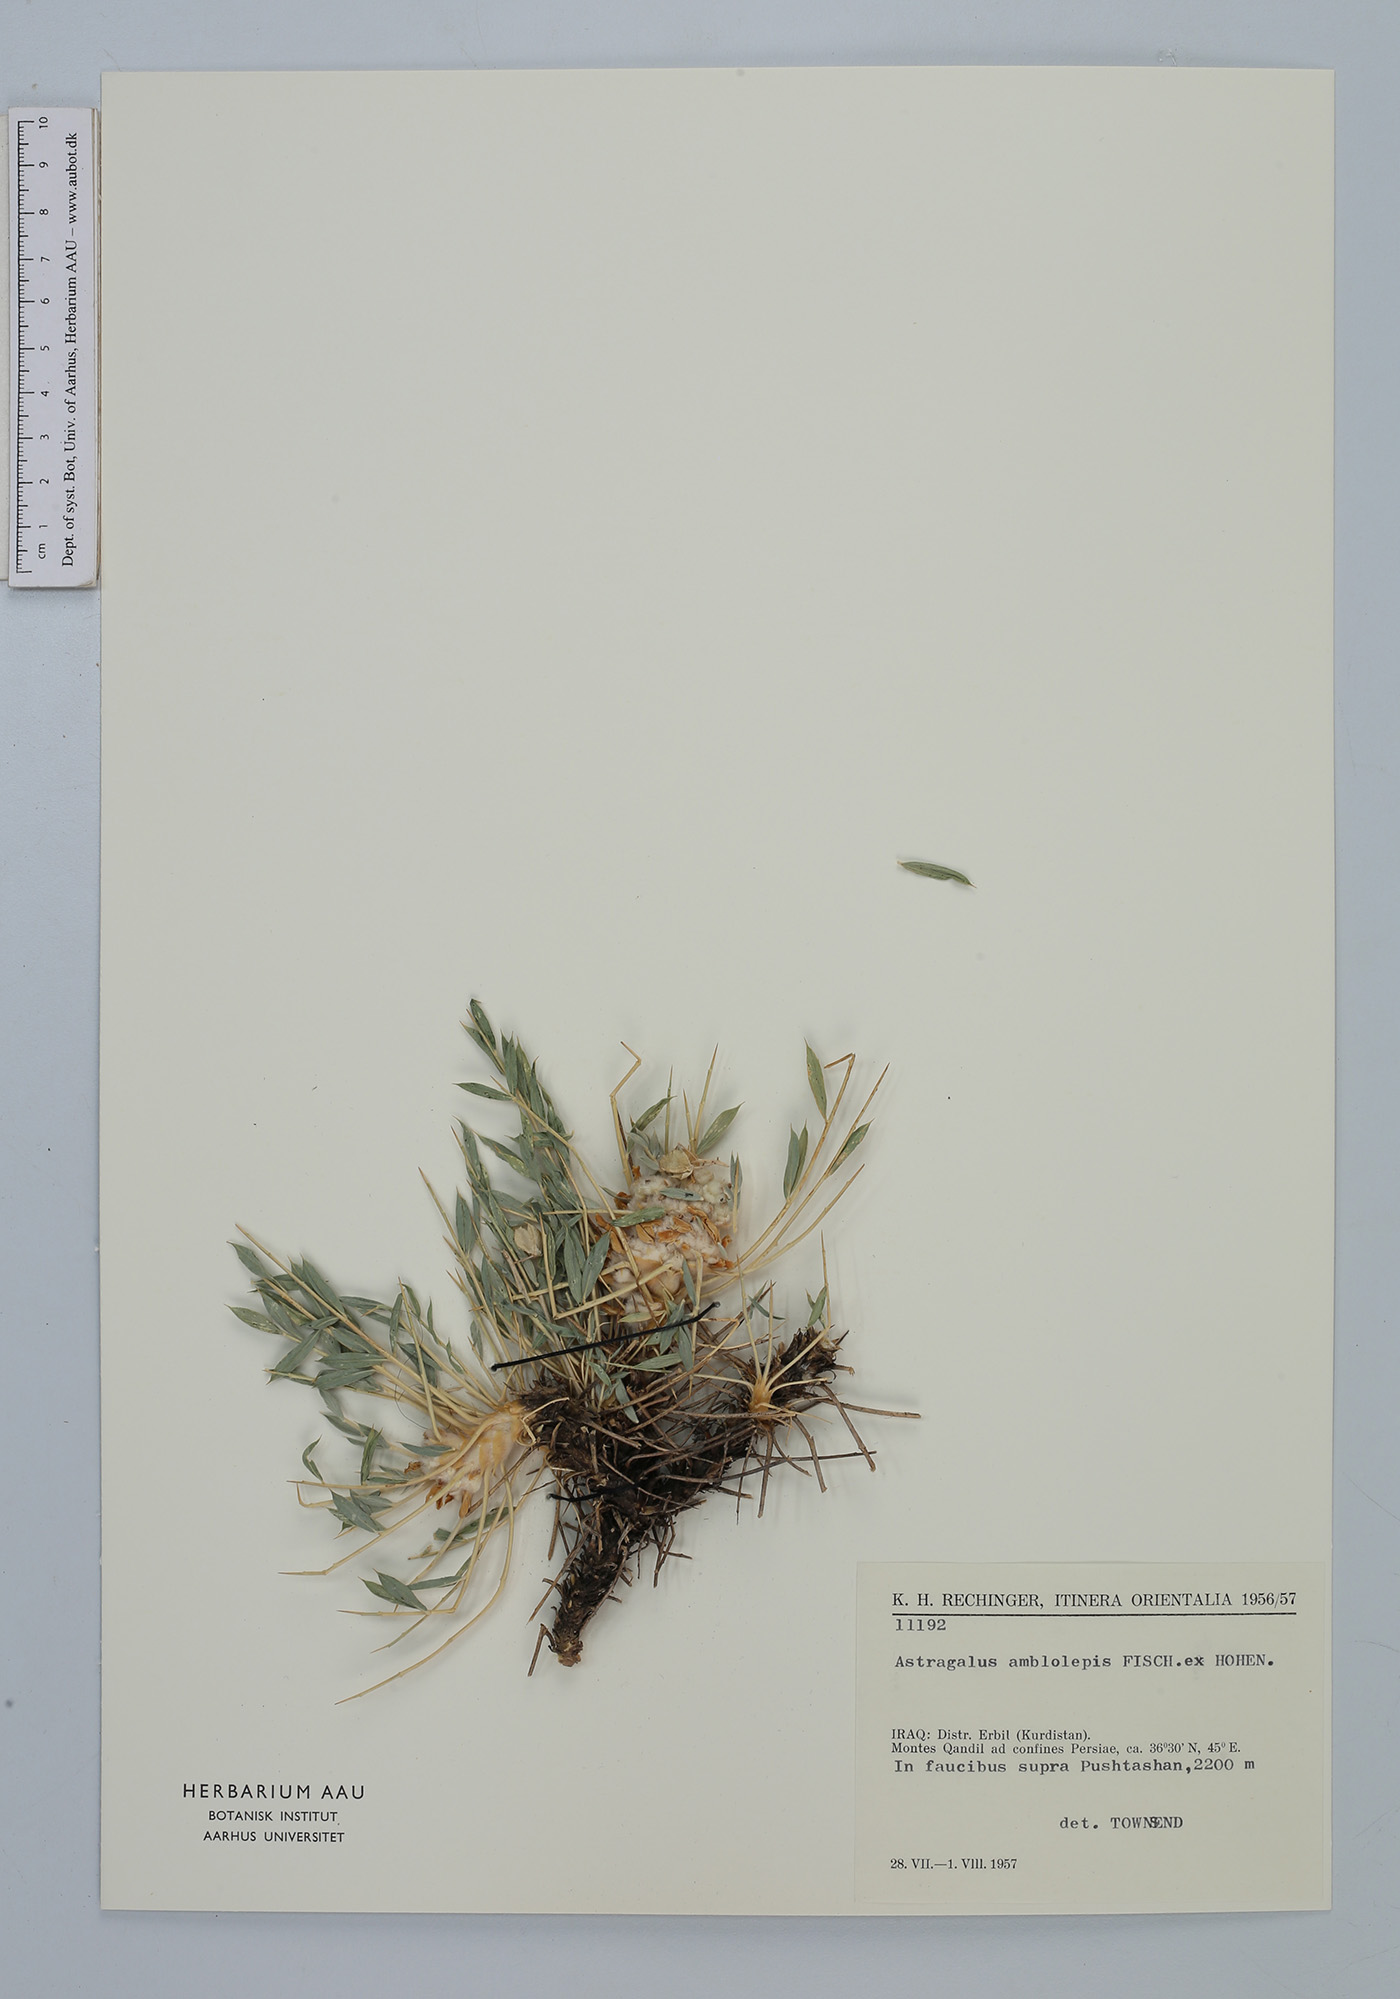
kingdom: Plantae
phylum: Tracheophyta
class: Magnoliopsida
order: Fabales
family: Fabaceae
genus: Astragalus
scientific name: Astragalus amblolepis
